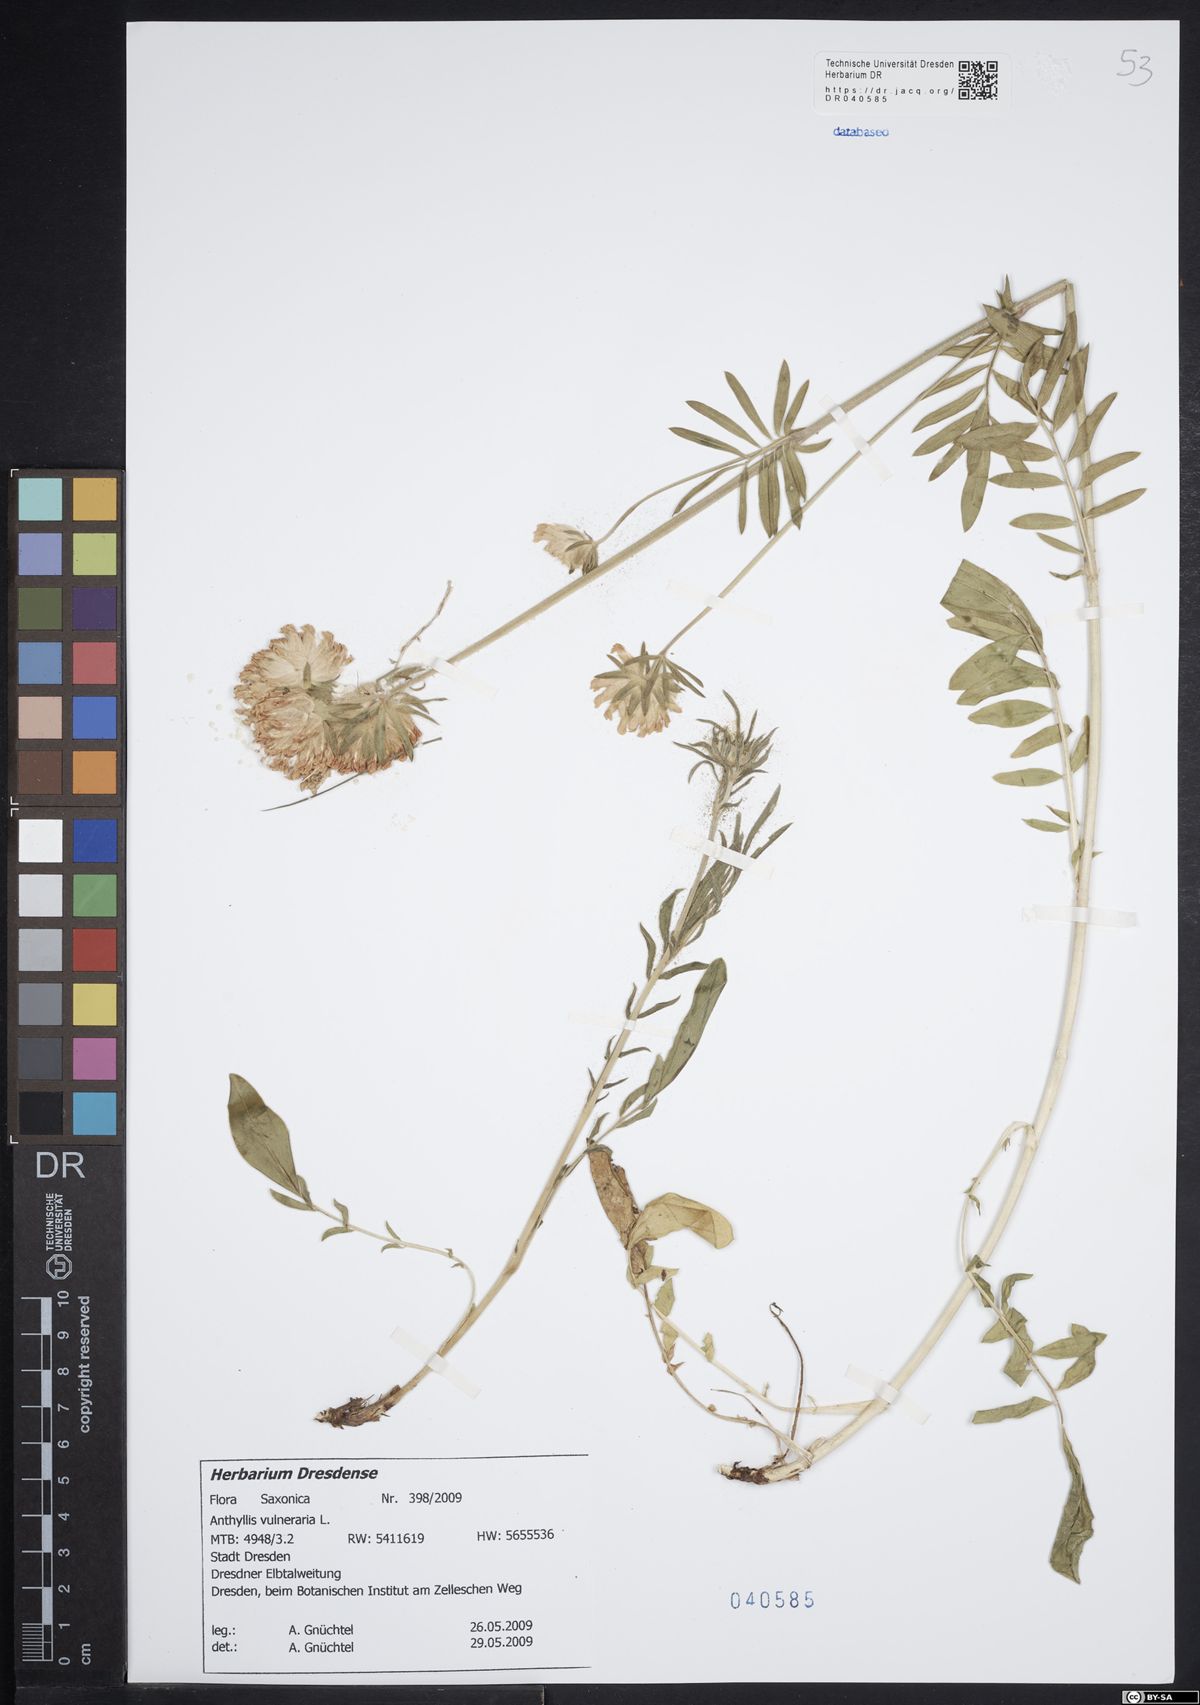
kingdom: Plantae
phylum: Tracheophyta
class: Magnoliopsida
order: Fabales
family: Fabaceae
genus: Anthyllis
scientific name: Anthyllis vulneraria
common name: Kidney vetch
